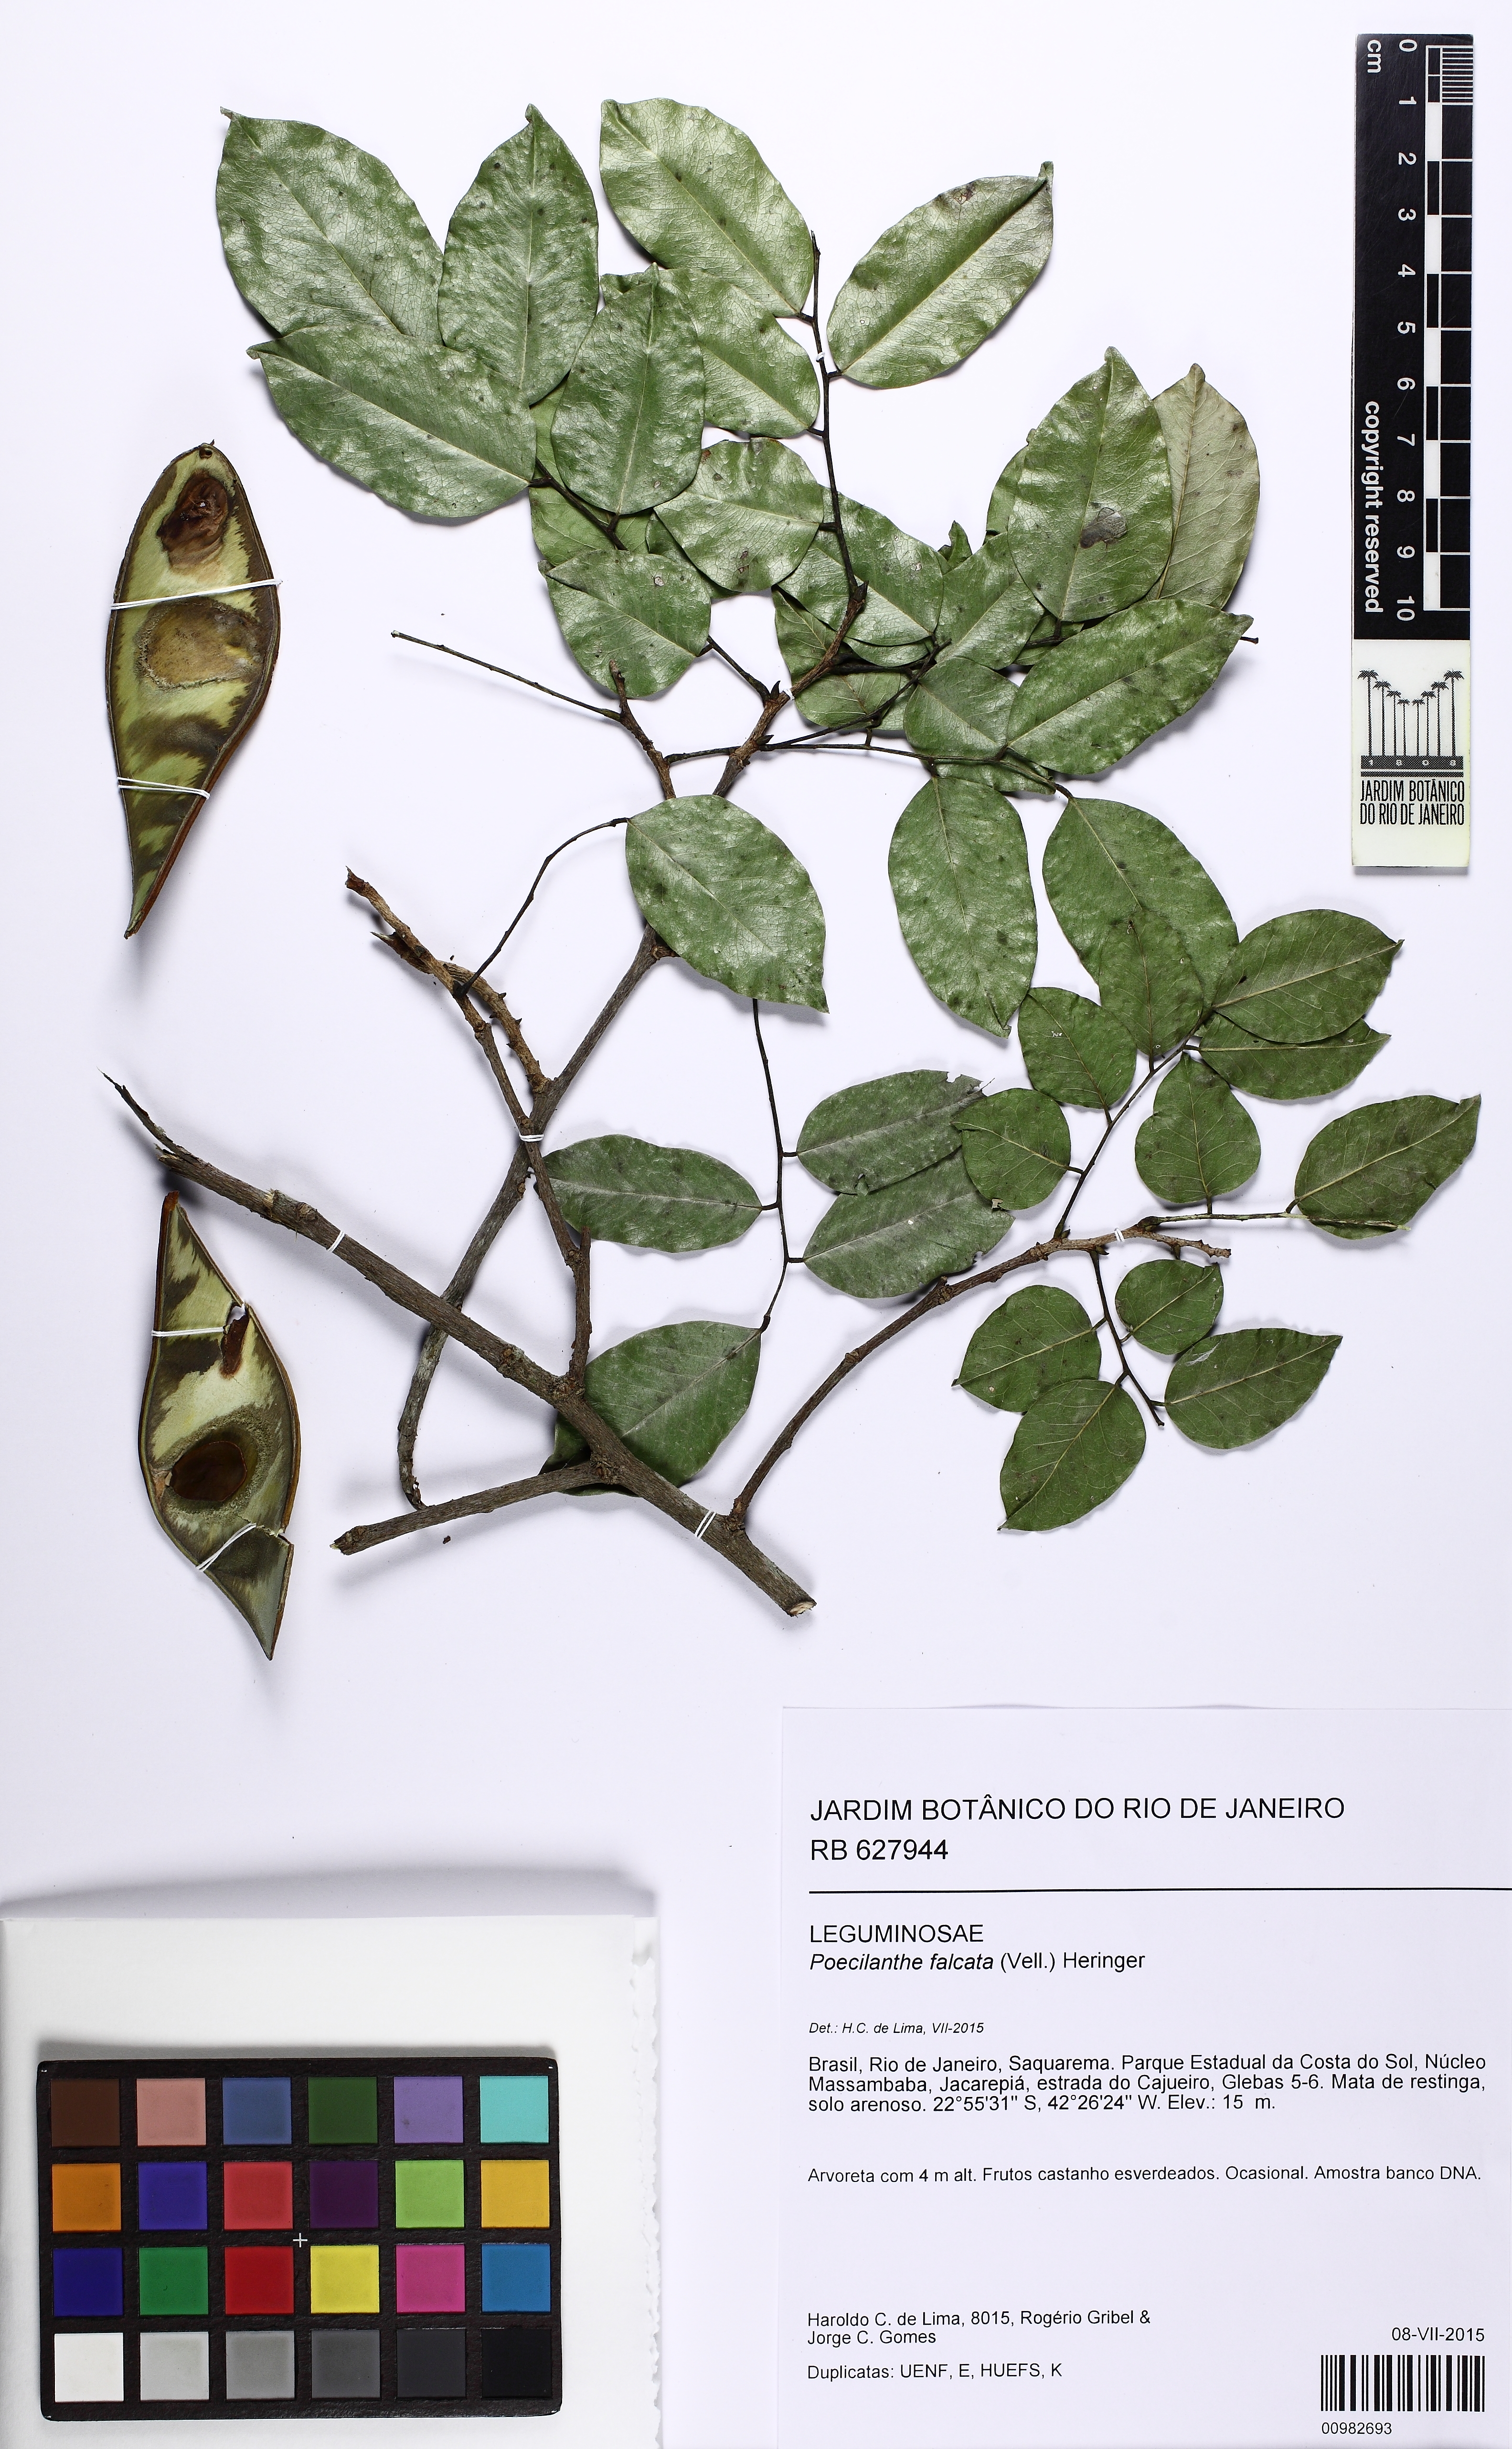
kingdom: Plantae
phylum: Tracheophyta
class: Magnoliopsida
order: Fabales
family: Fabaceae
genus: Poecilanthe
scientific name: Poecilanthe falcata
